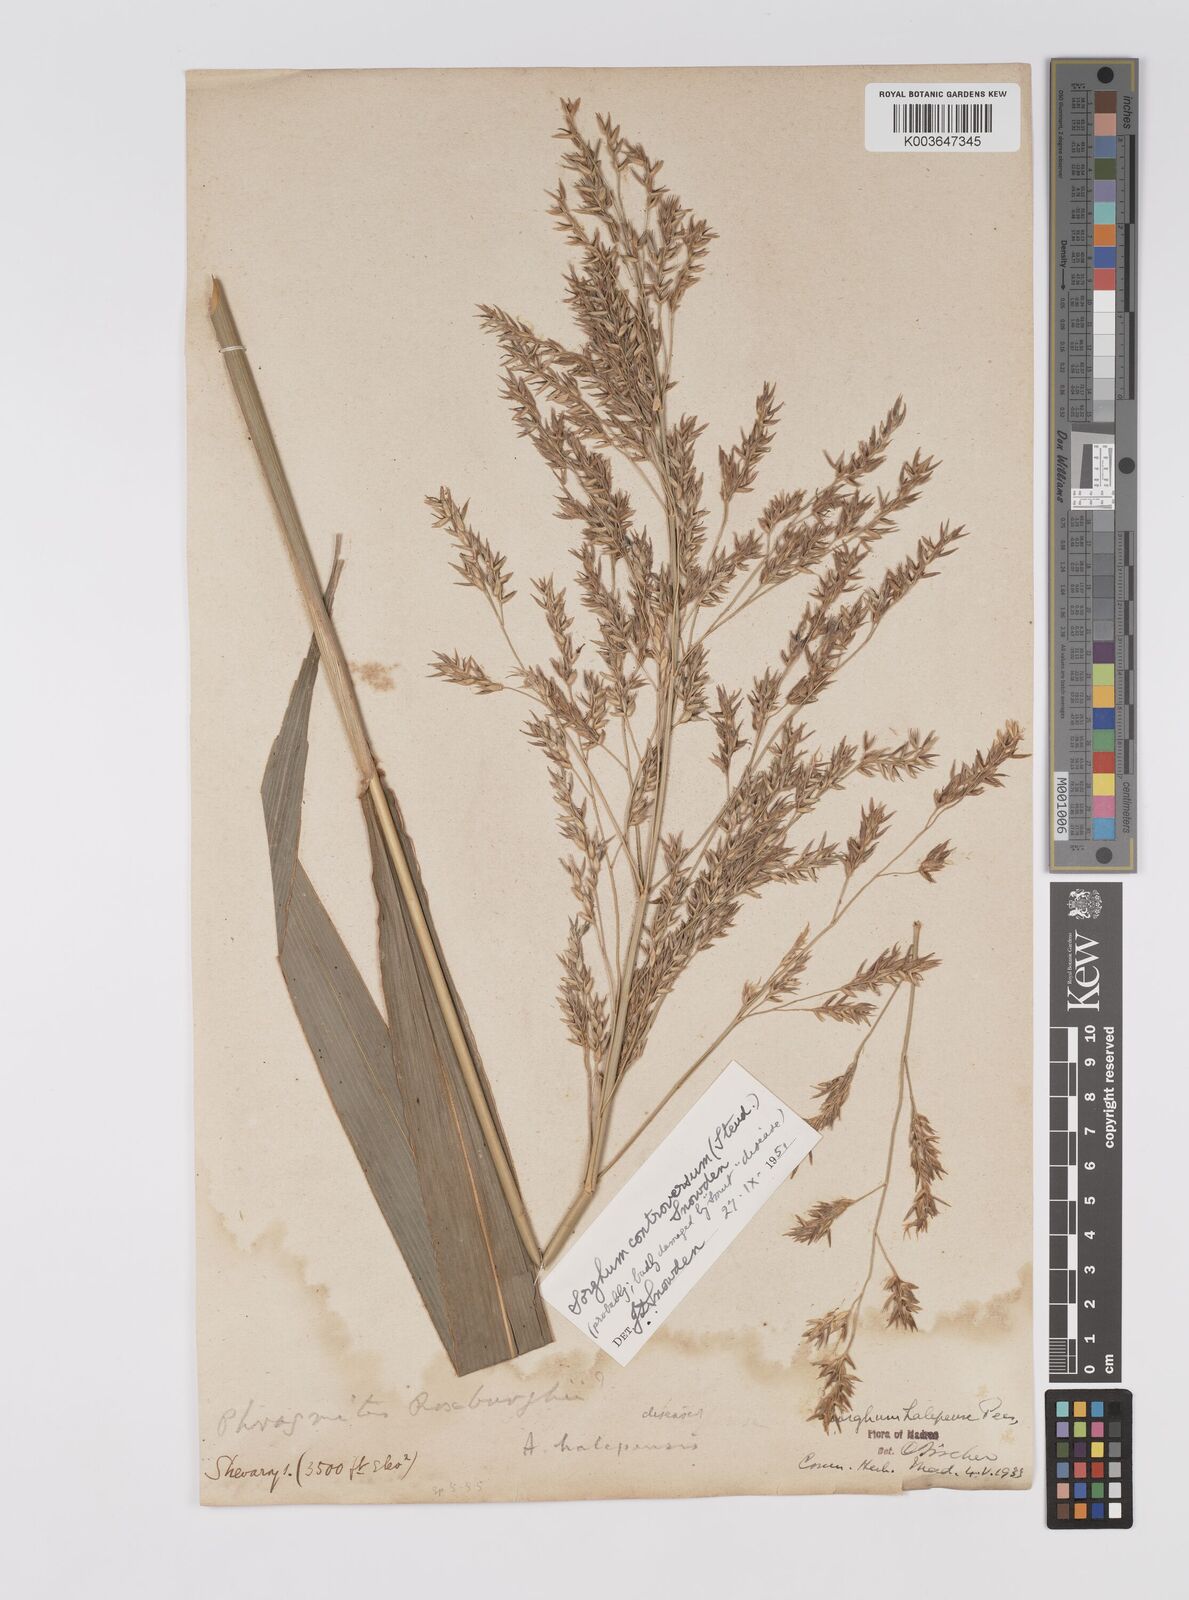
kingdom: Plantae
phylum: Tracheophyta
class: Liliopsida
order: Poales
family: Poaceae
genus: Sorghum
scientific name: Sorghum controversum
